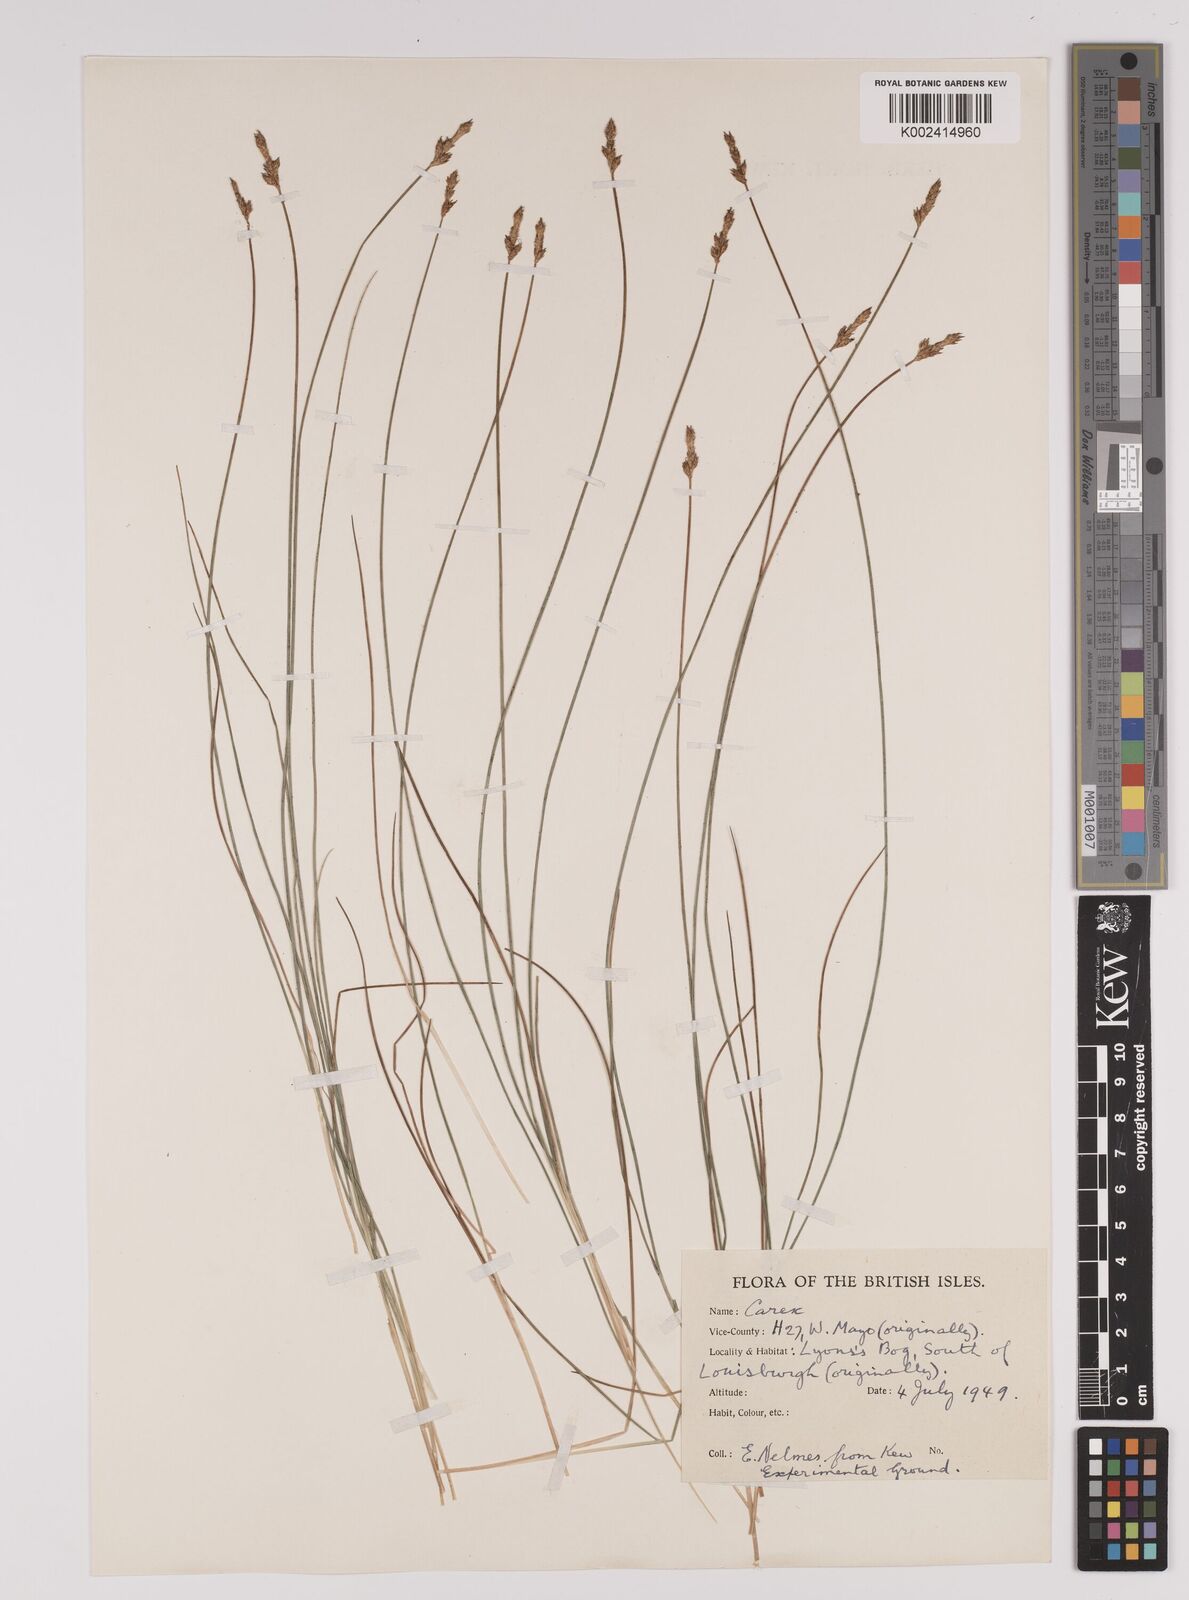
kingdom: Plantae
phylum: Tracheophyta
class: Liliopsida
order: Poales
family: Cyperaceae
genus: Carex
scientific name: Carex dioica
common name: Dioecious sedge
